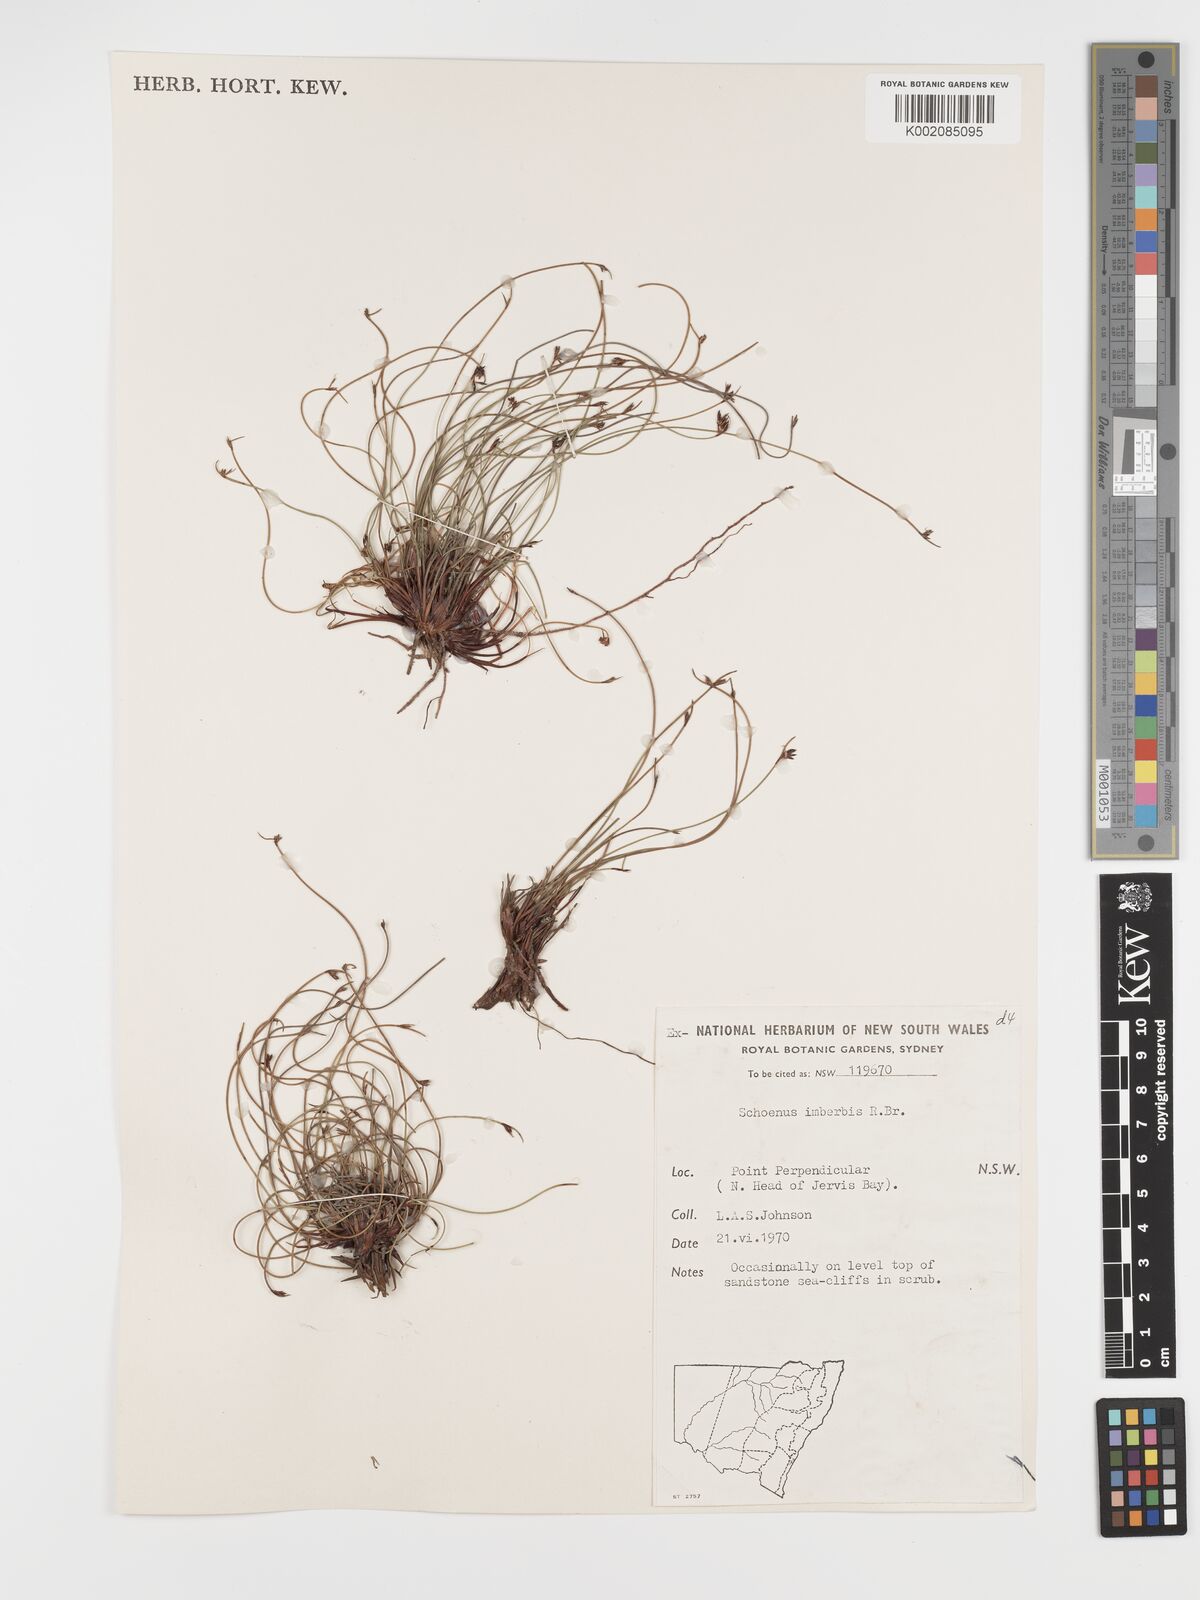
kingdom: Plantae
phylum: Tracheophyta
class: Liliopsida
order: Poales
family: Cyperaceae
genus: Schoenus
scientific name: Schoenus imberbis
